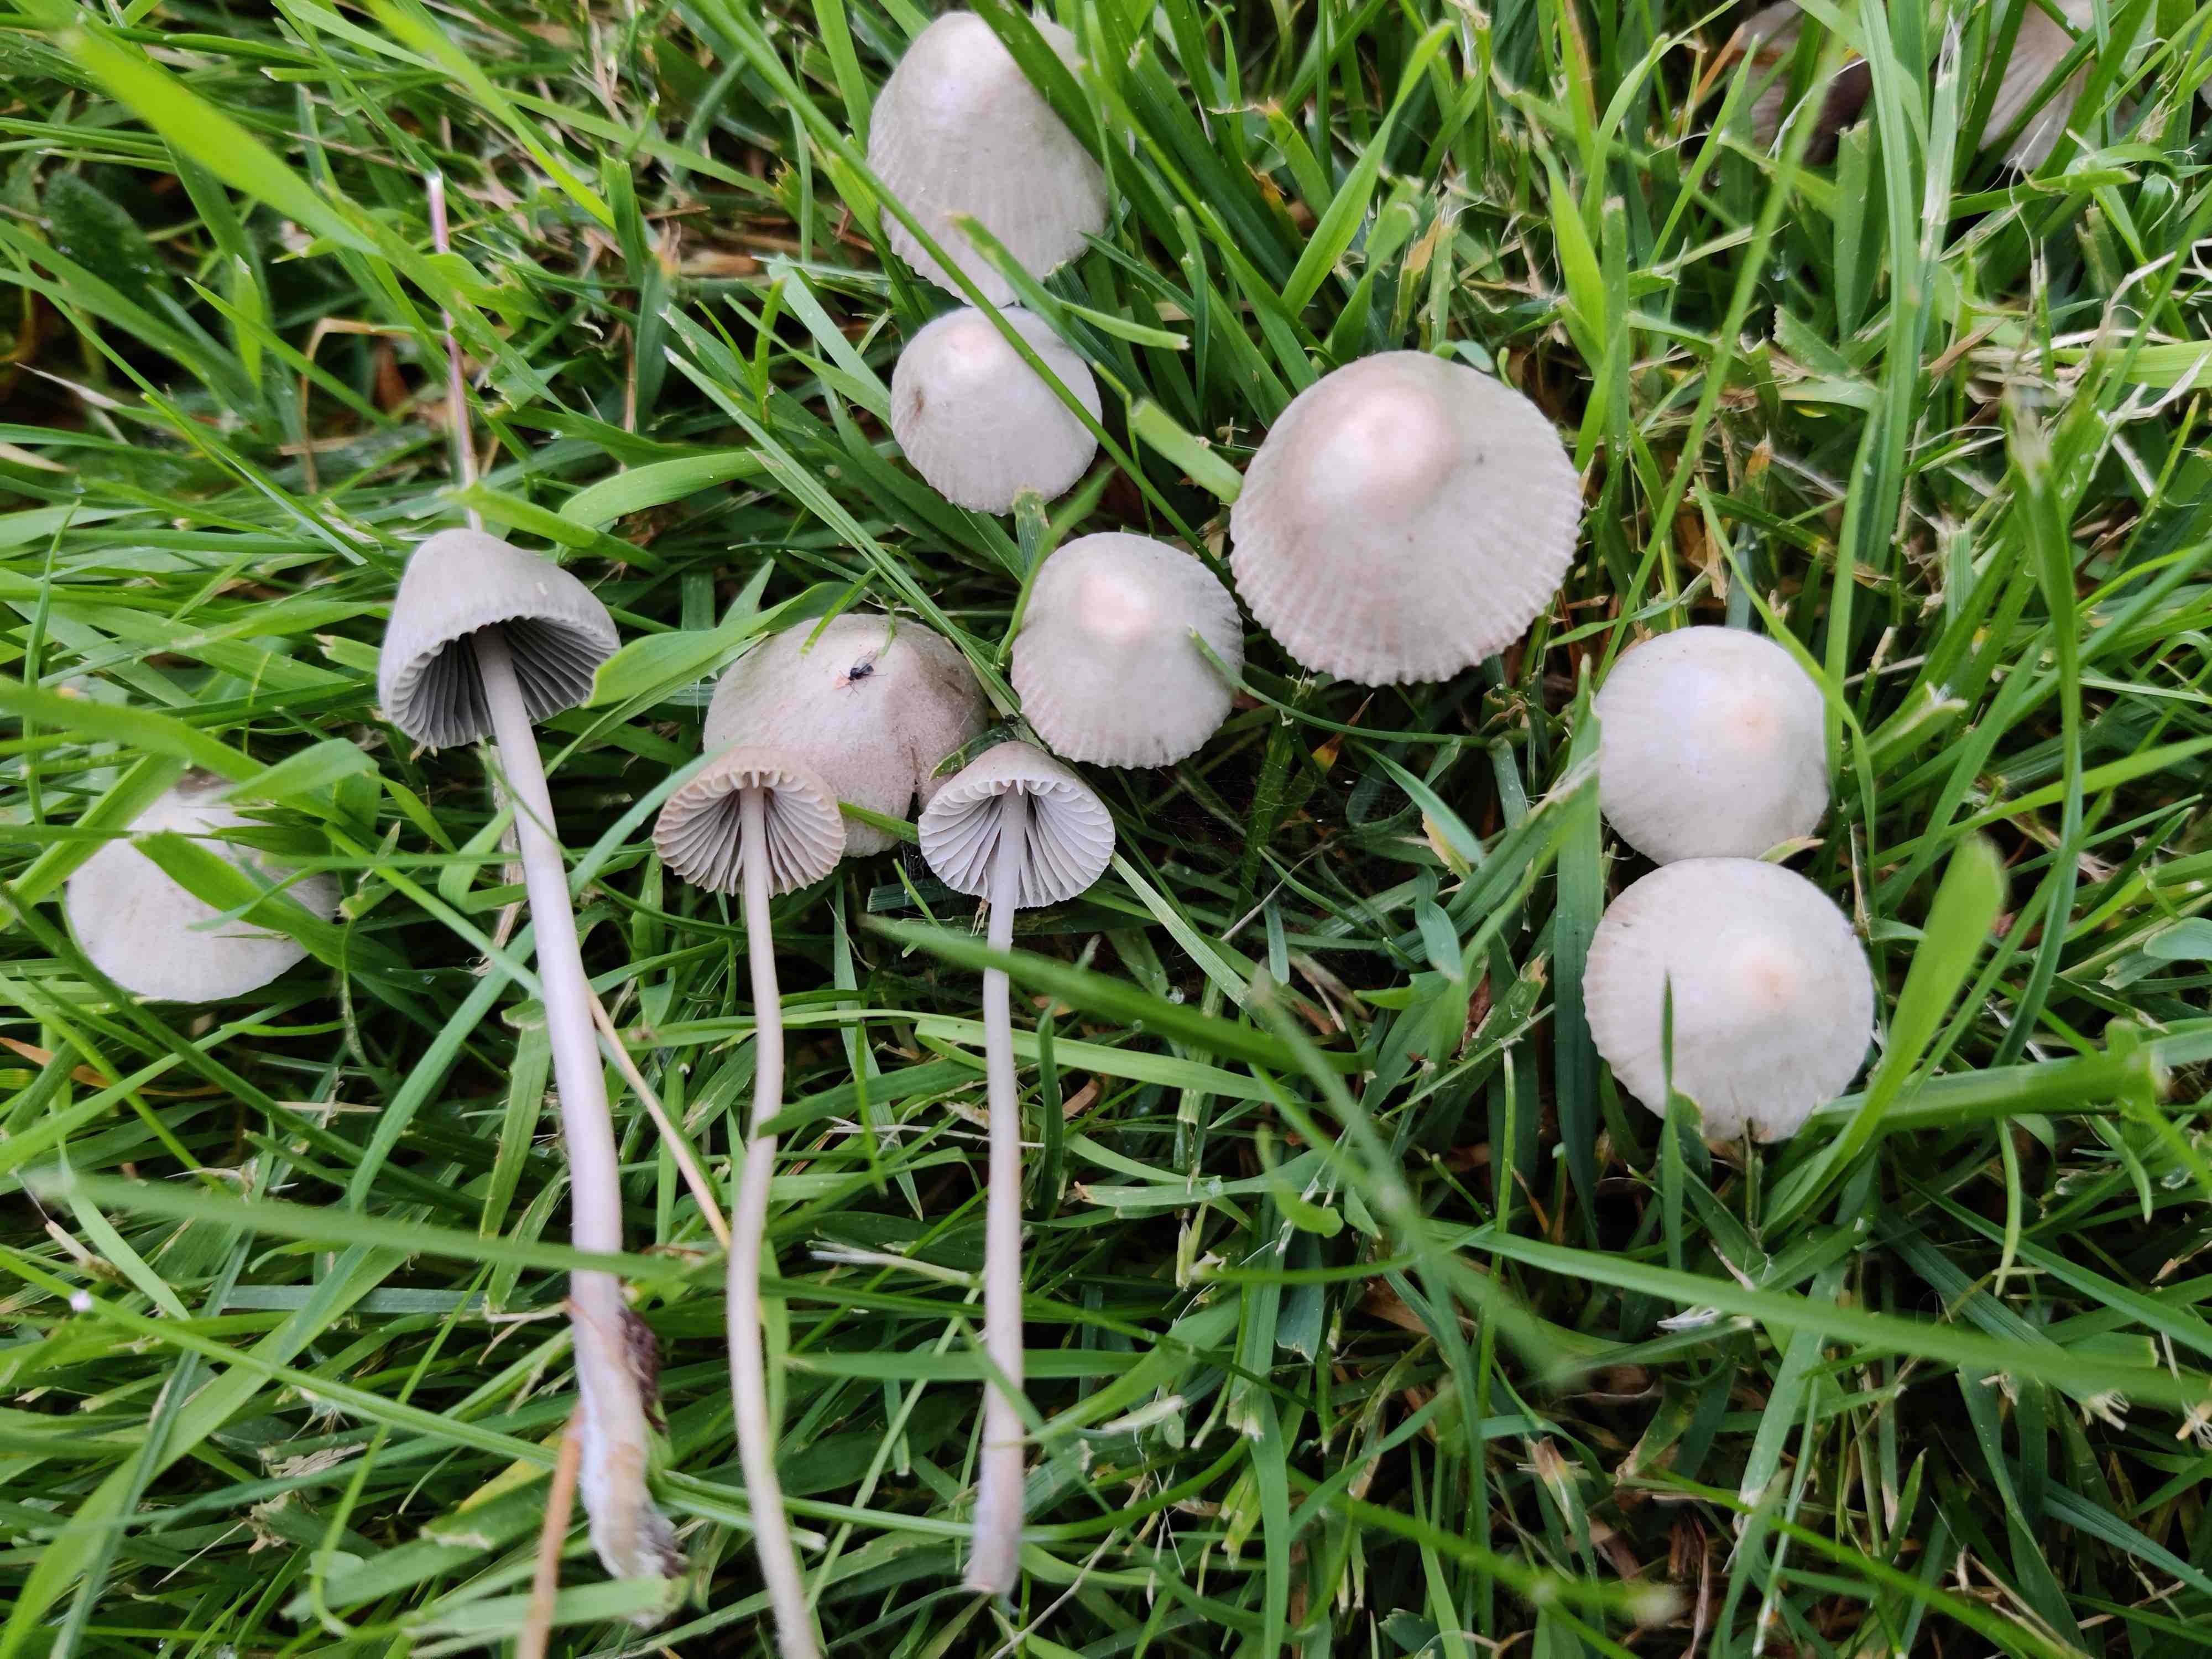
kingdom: Fungi
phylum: Basidiomycota
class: Agaricomycetes
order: Agaricales
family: Mycenaceae
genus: Mycena
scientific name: Mycena
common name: huesvamp
